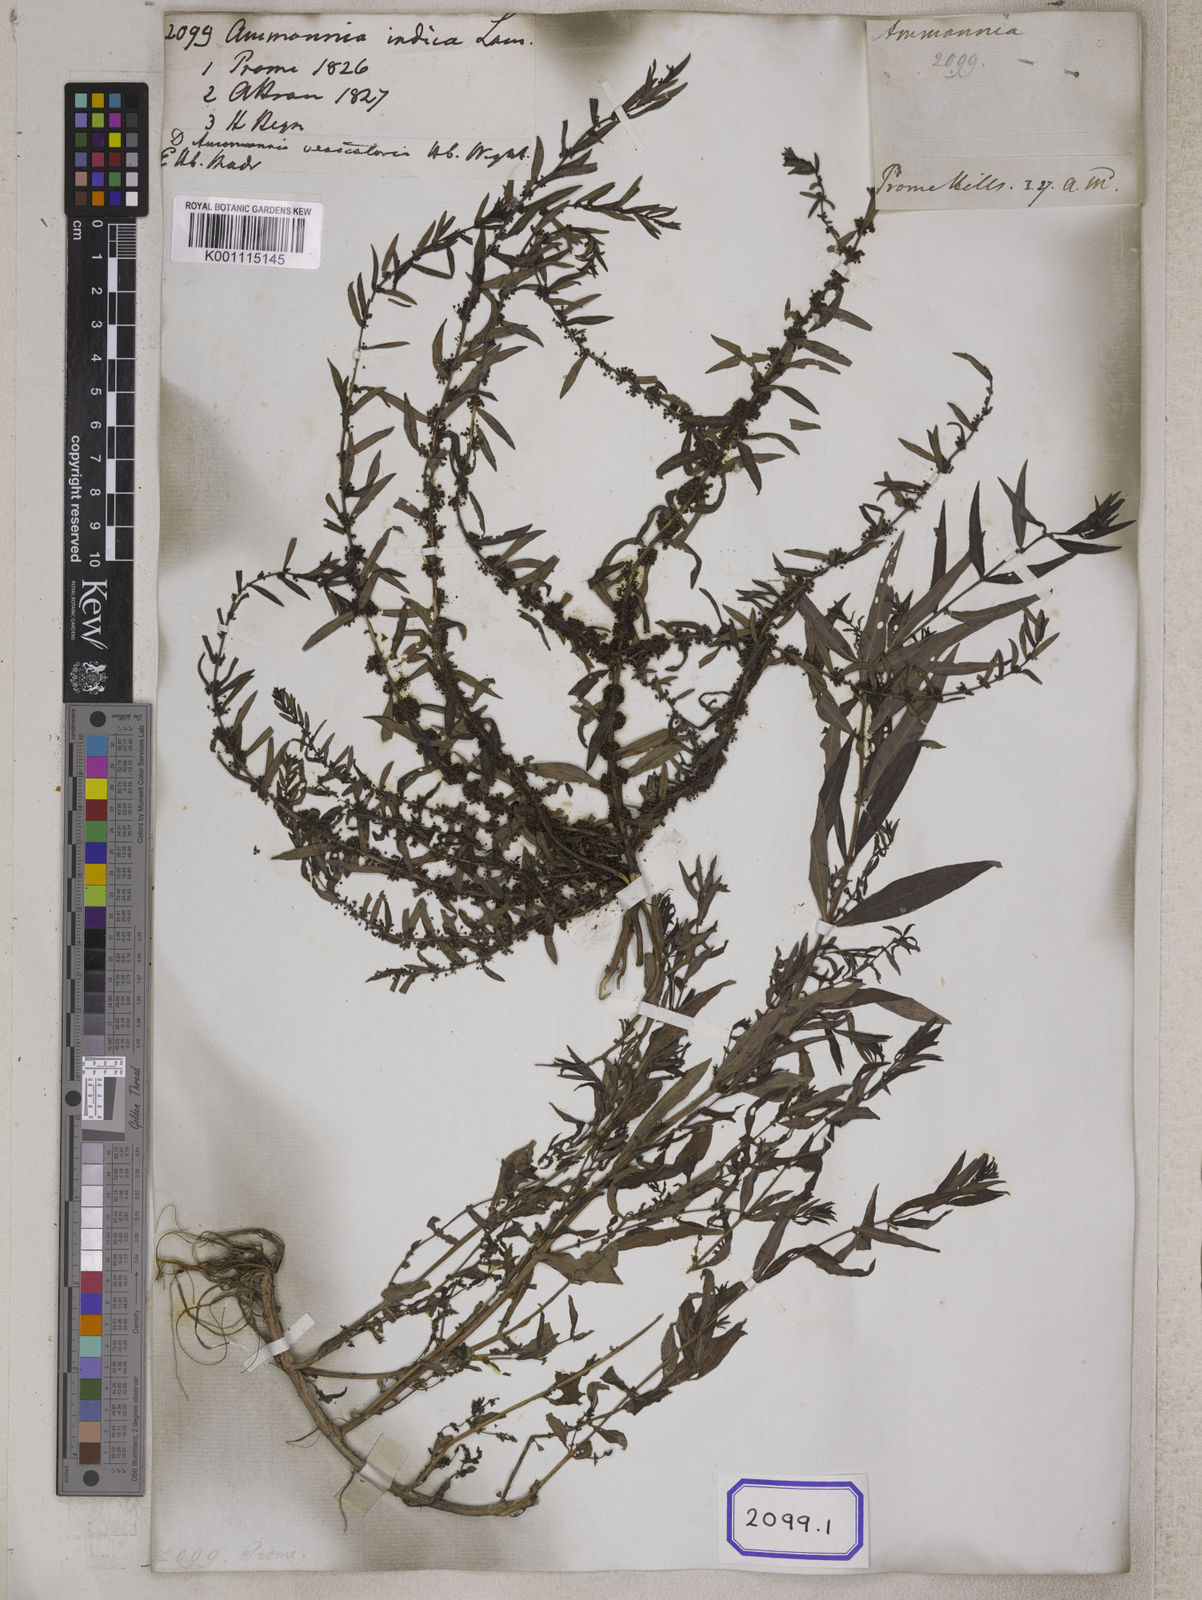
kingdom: Plantae
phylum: Tracheophyta
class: Magnoliopsida
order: Myrtales
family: Lythraceae
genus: Ammannia
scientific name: Ammannia baccifera
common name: Blistering ammania
